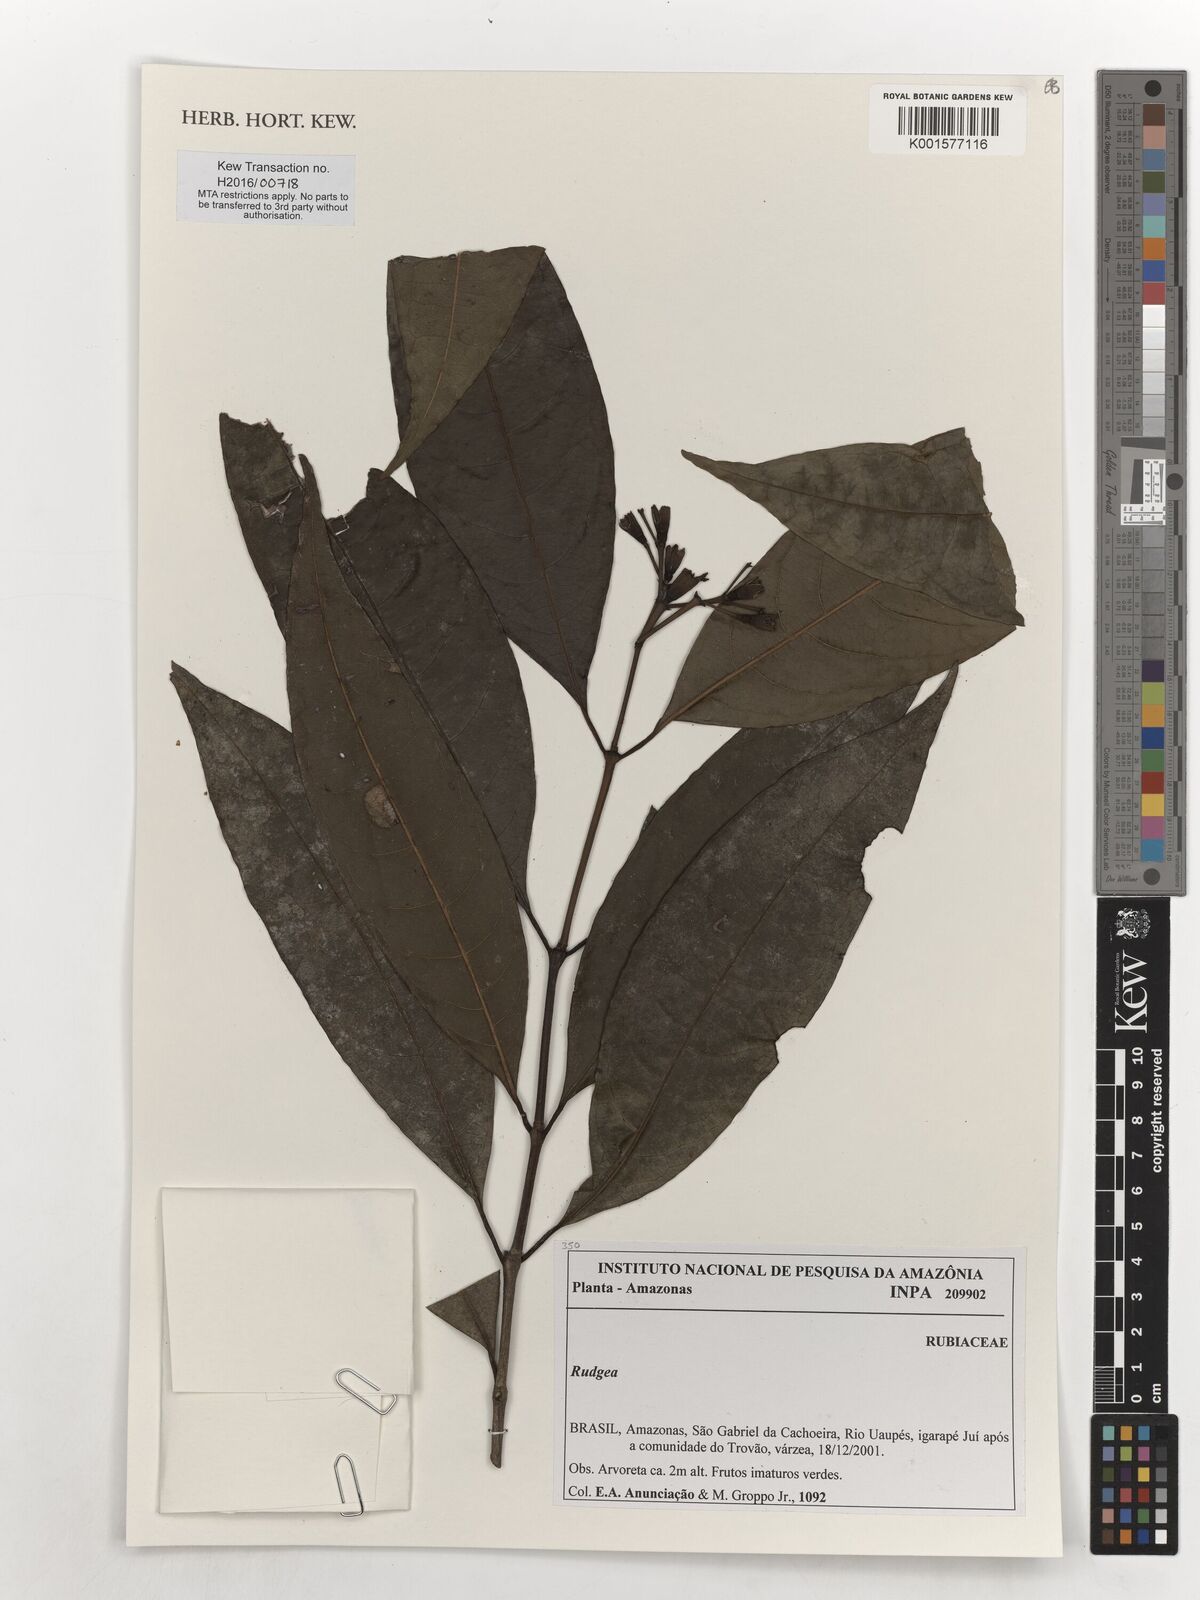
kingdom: Plantae
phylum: Tracheophyta
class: Magnoliopsida
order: Gentianales
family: Rubiaceae
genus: Rudgea
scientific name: Rudgea
